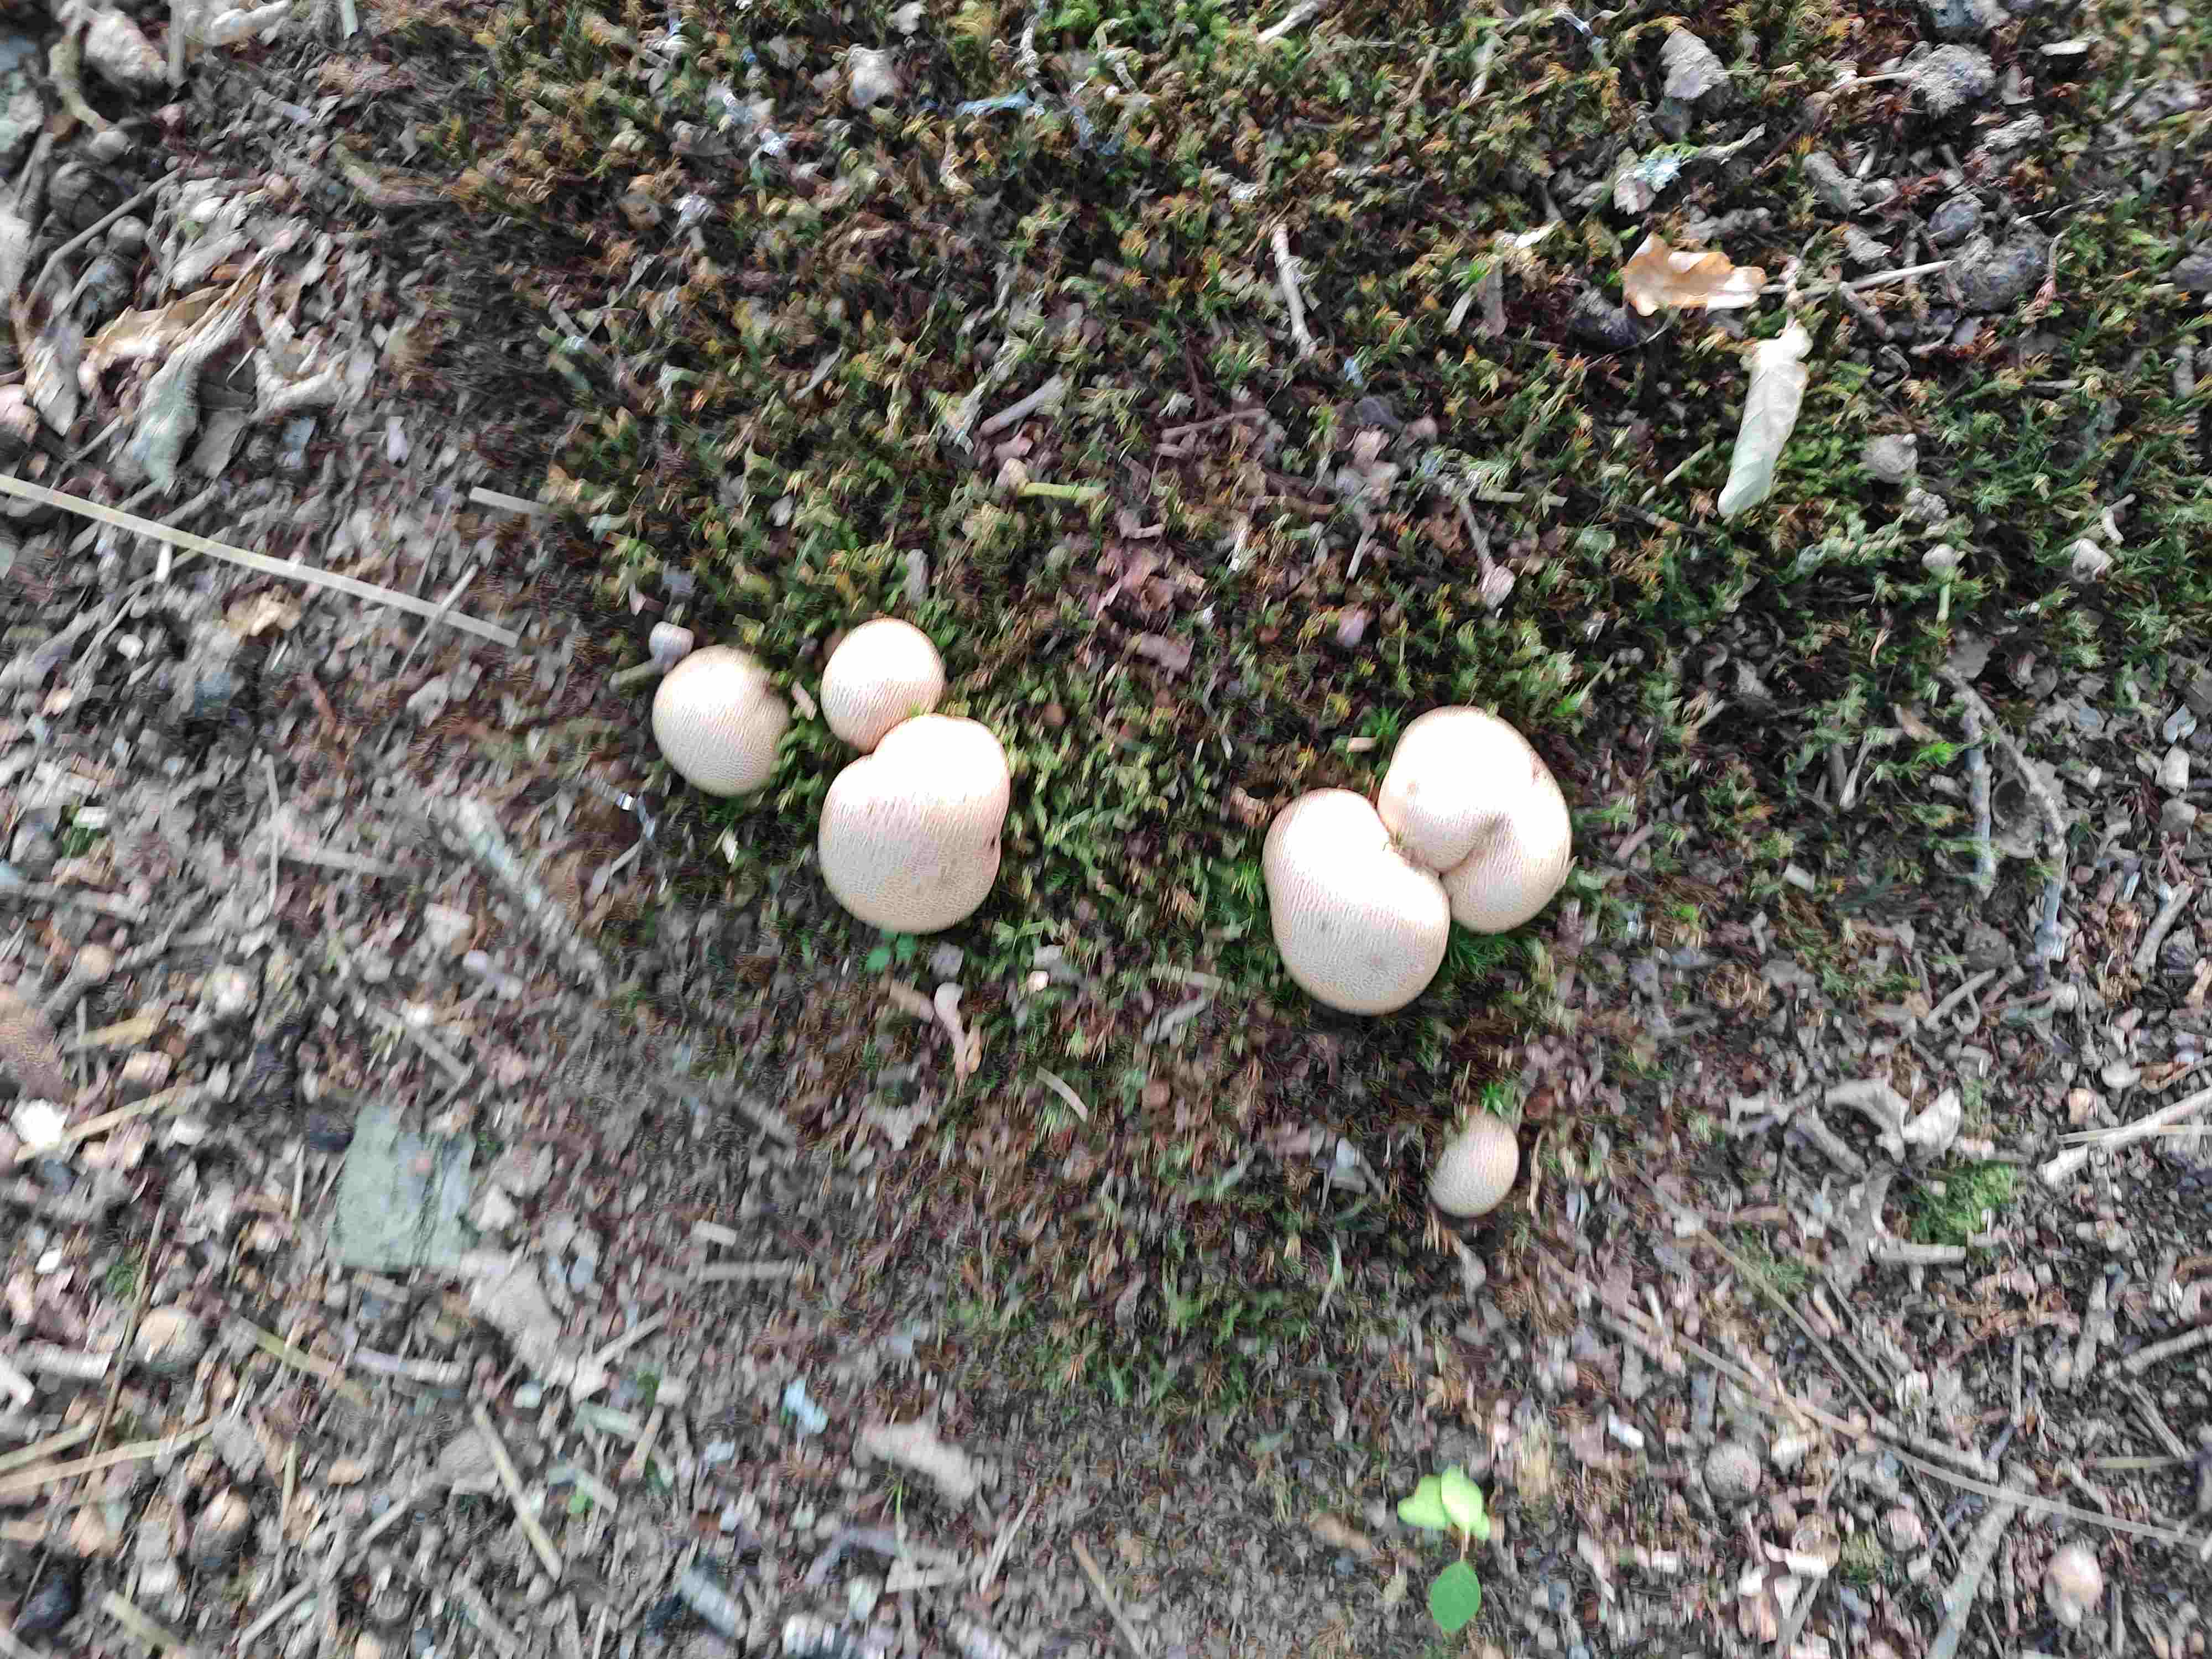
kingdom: Fungi
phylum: Basidiomycota
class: Agaricomycetes
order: Boletales
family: Sclerodermataceae
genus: Scleroderma
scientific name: Scleroderma citrinum
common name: almindelig bruskbold
